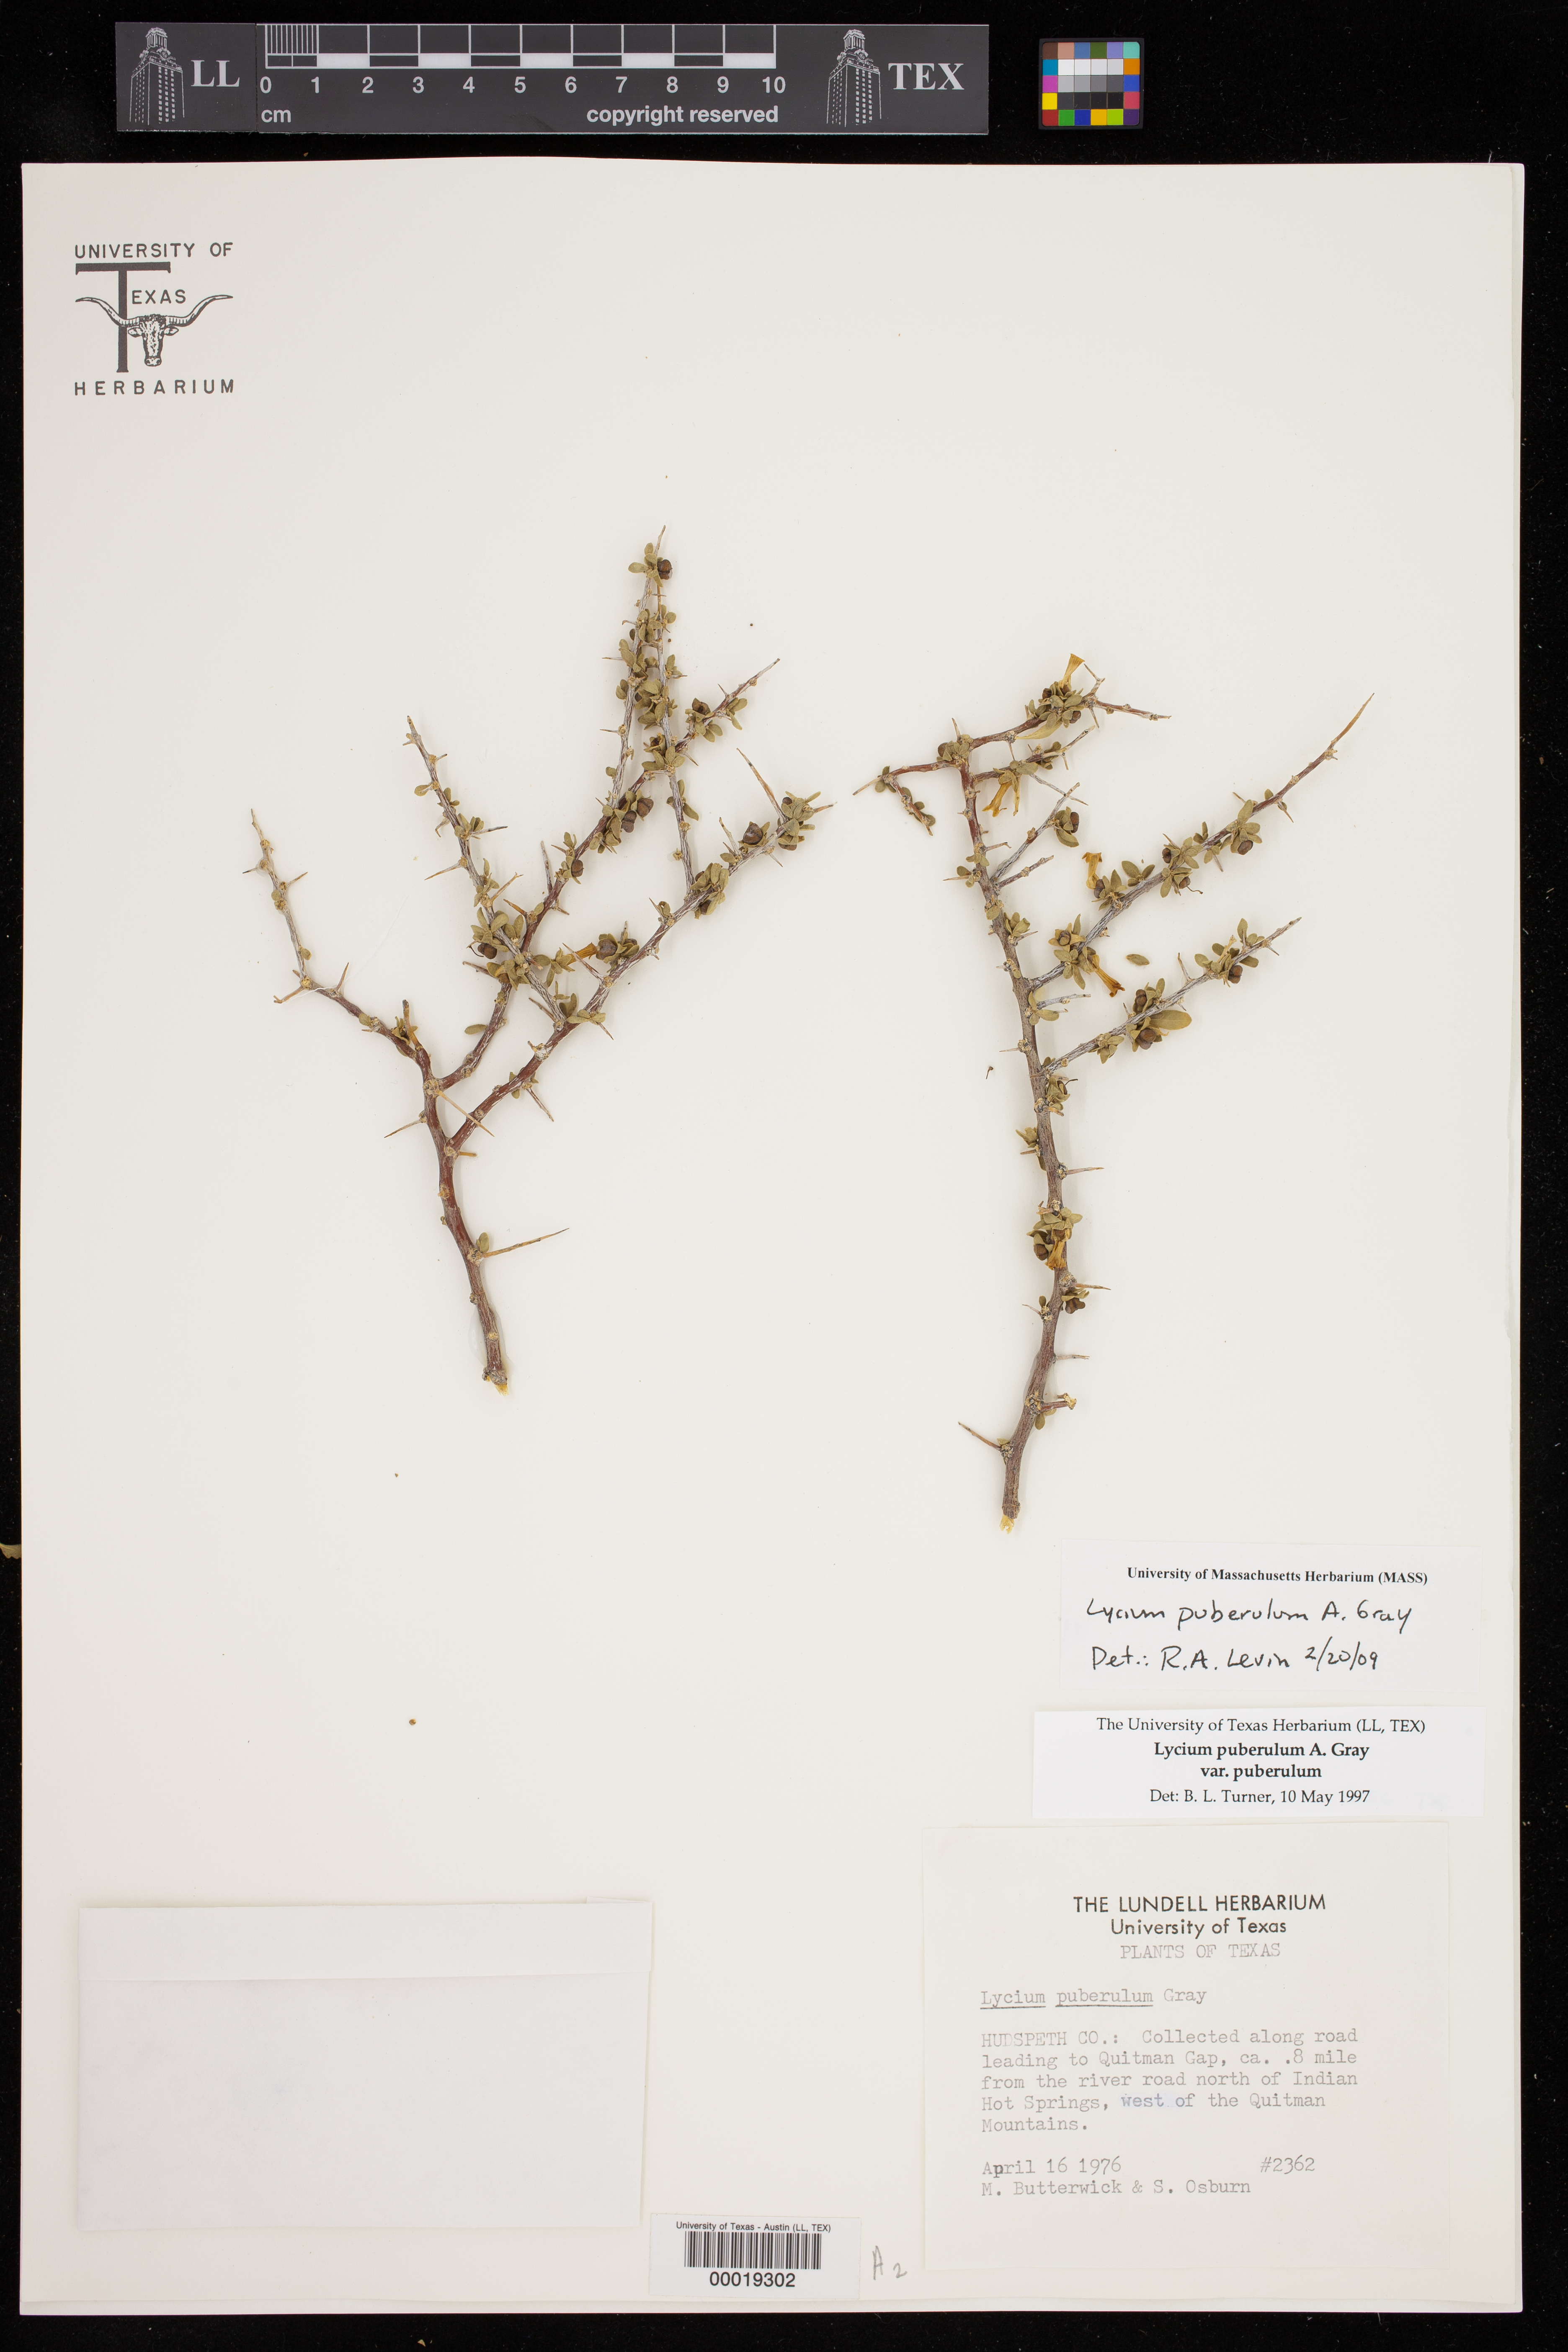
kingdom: Plantae
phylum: Tracheophyta
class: Magnoliopsida
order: Solanales
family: Solanaceae
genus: Lycium
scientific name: Lycium puberulum
